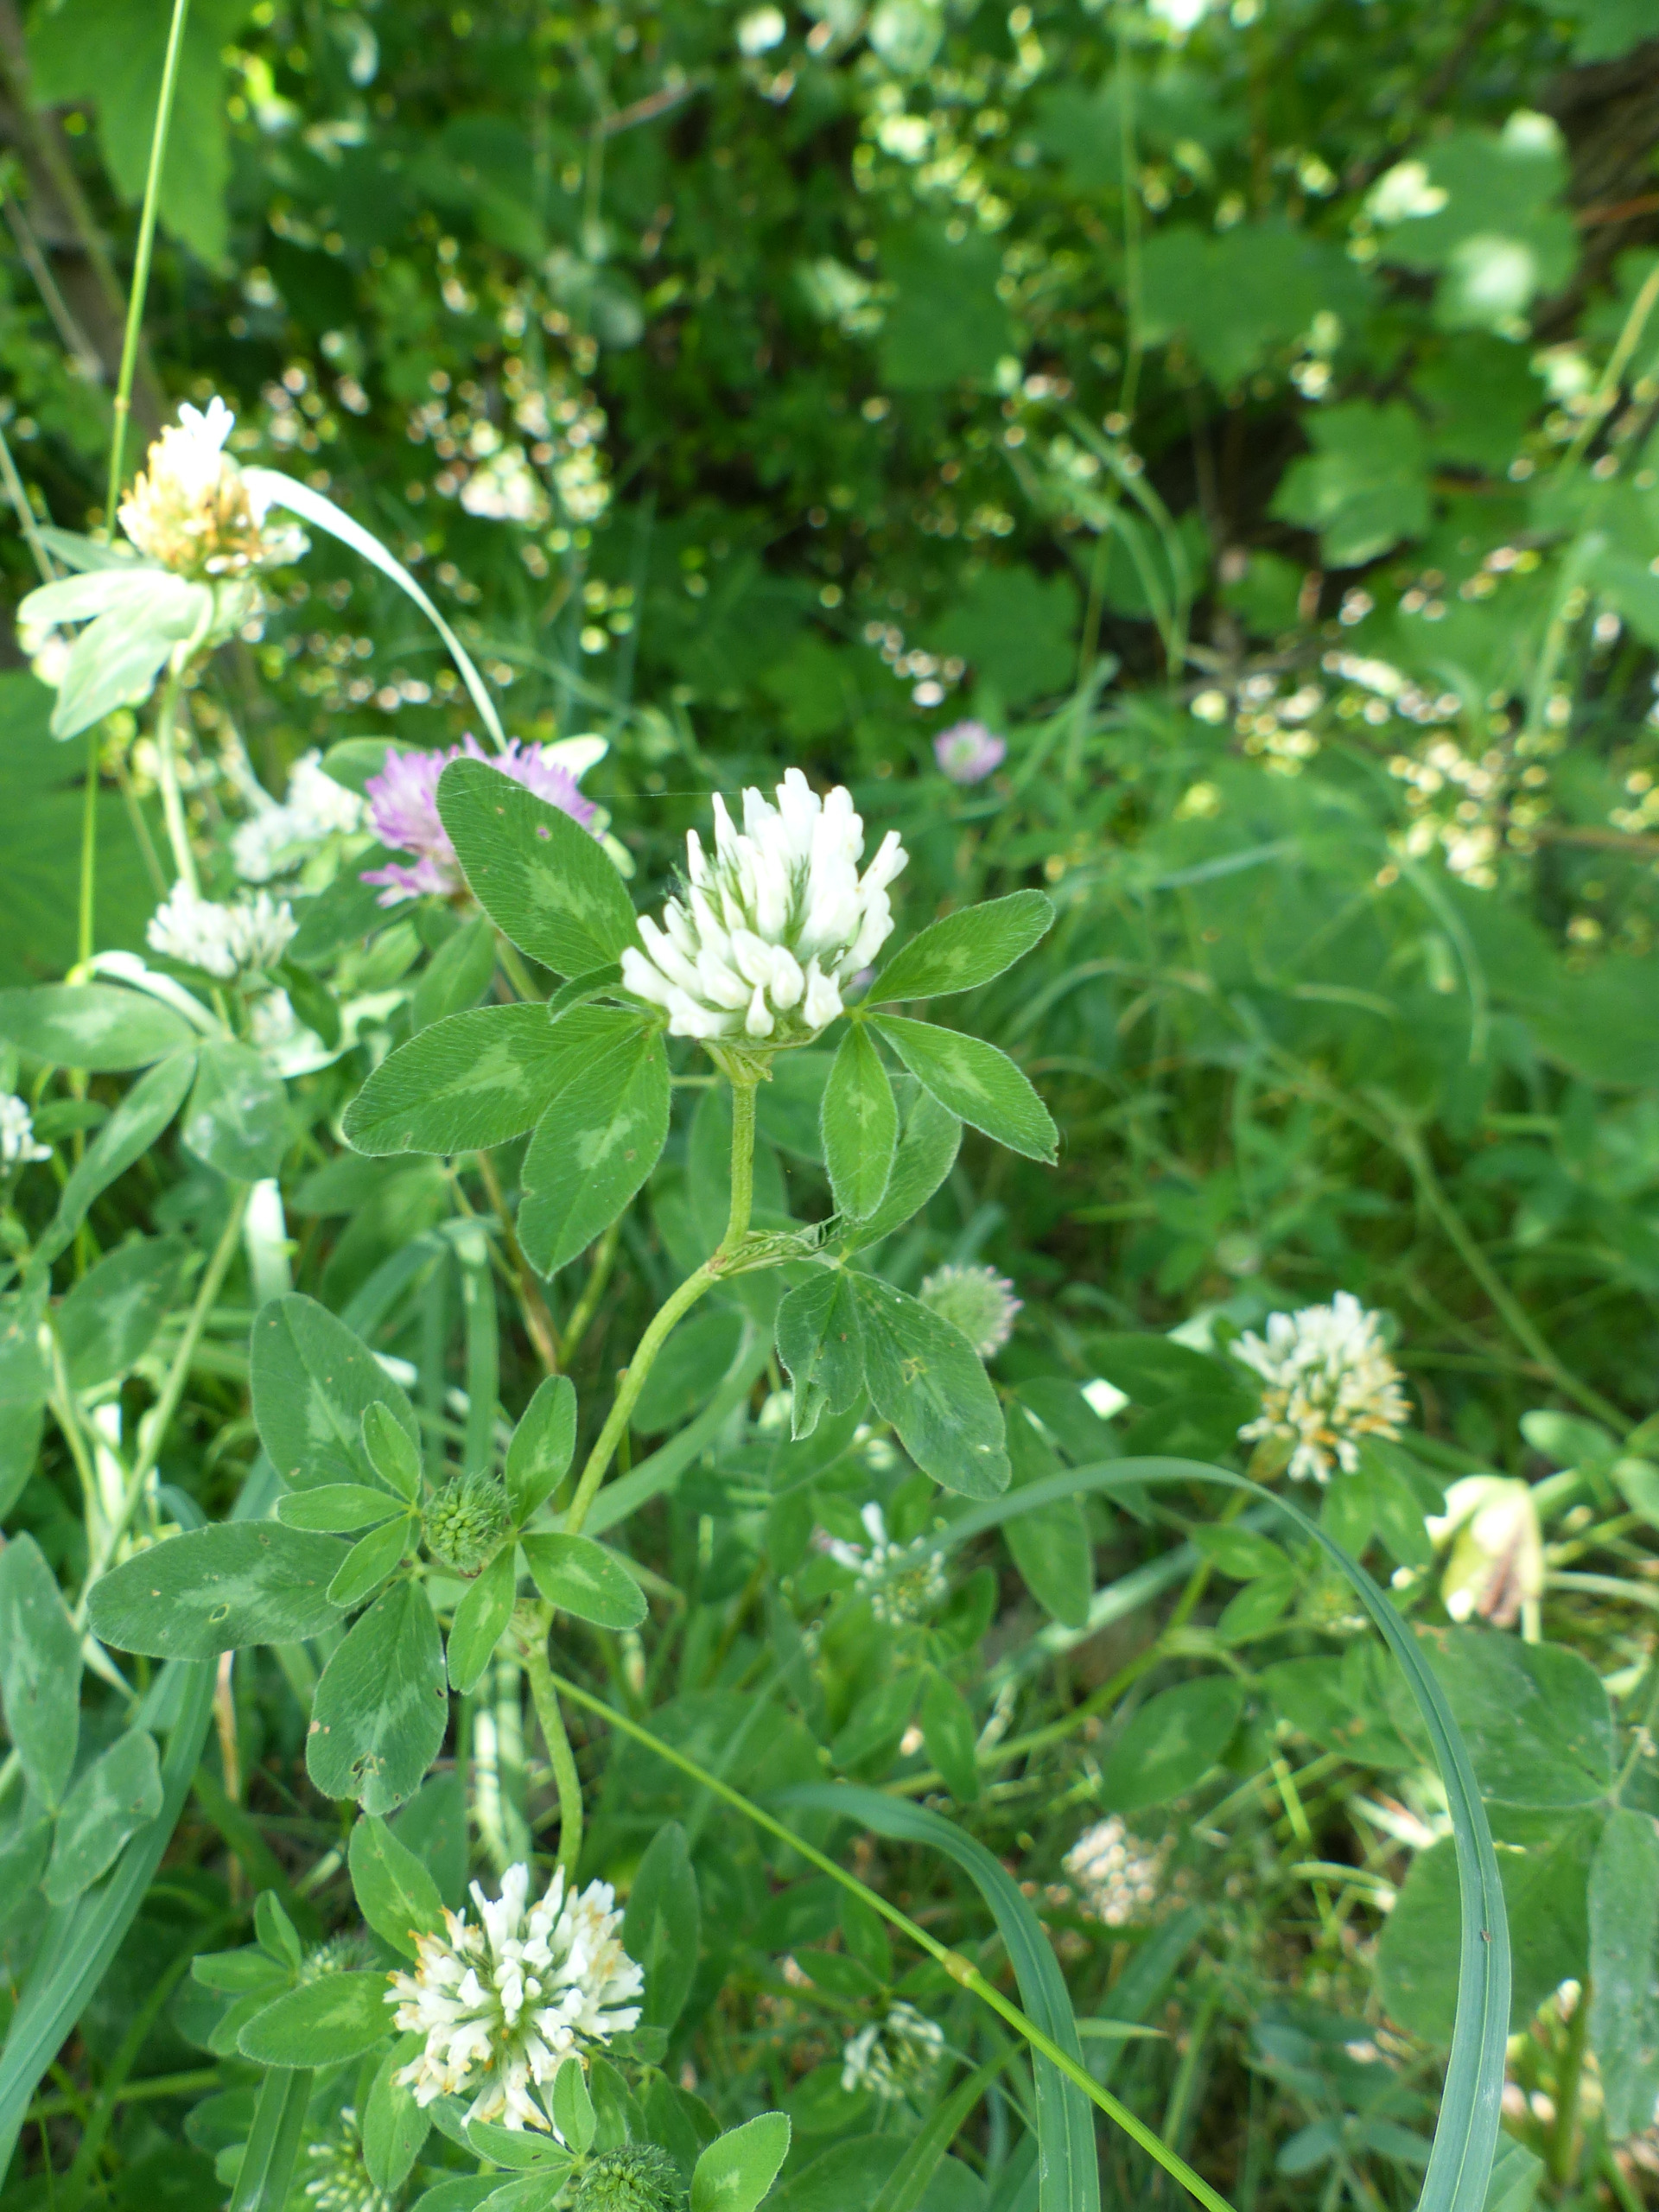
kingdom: Plantae
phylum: Tracheophyta
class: Magnoliopsida
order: Fabales
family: Fabaceae
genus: Trifolium
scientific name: Trifolium pratense
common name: Rød-kløver
